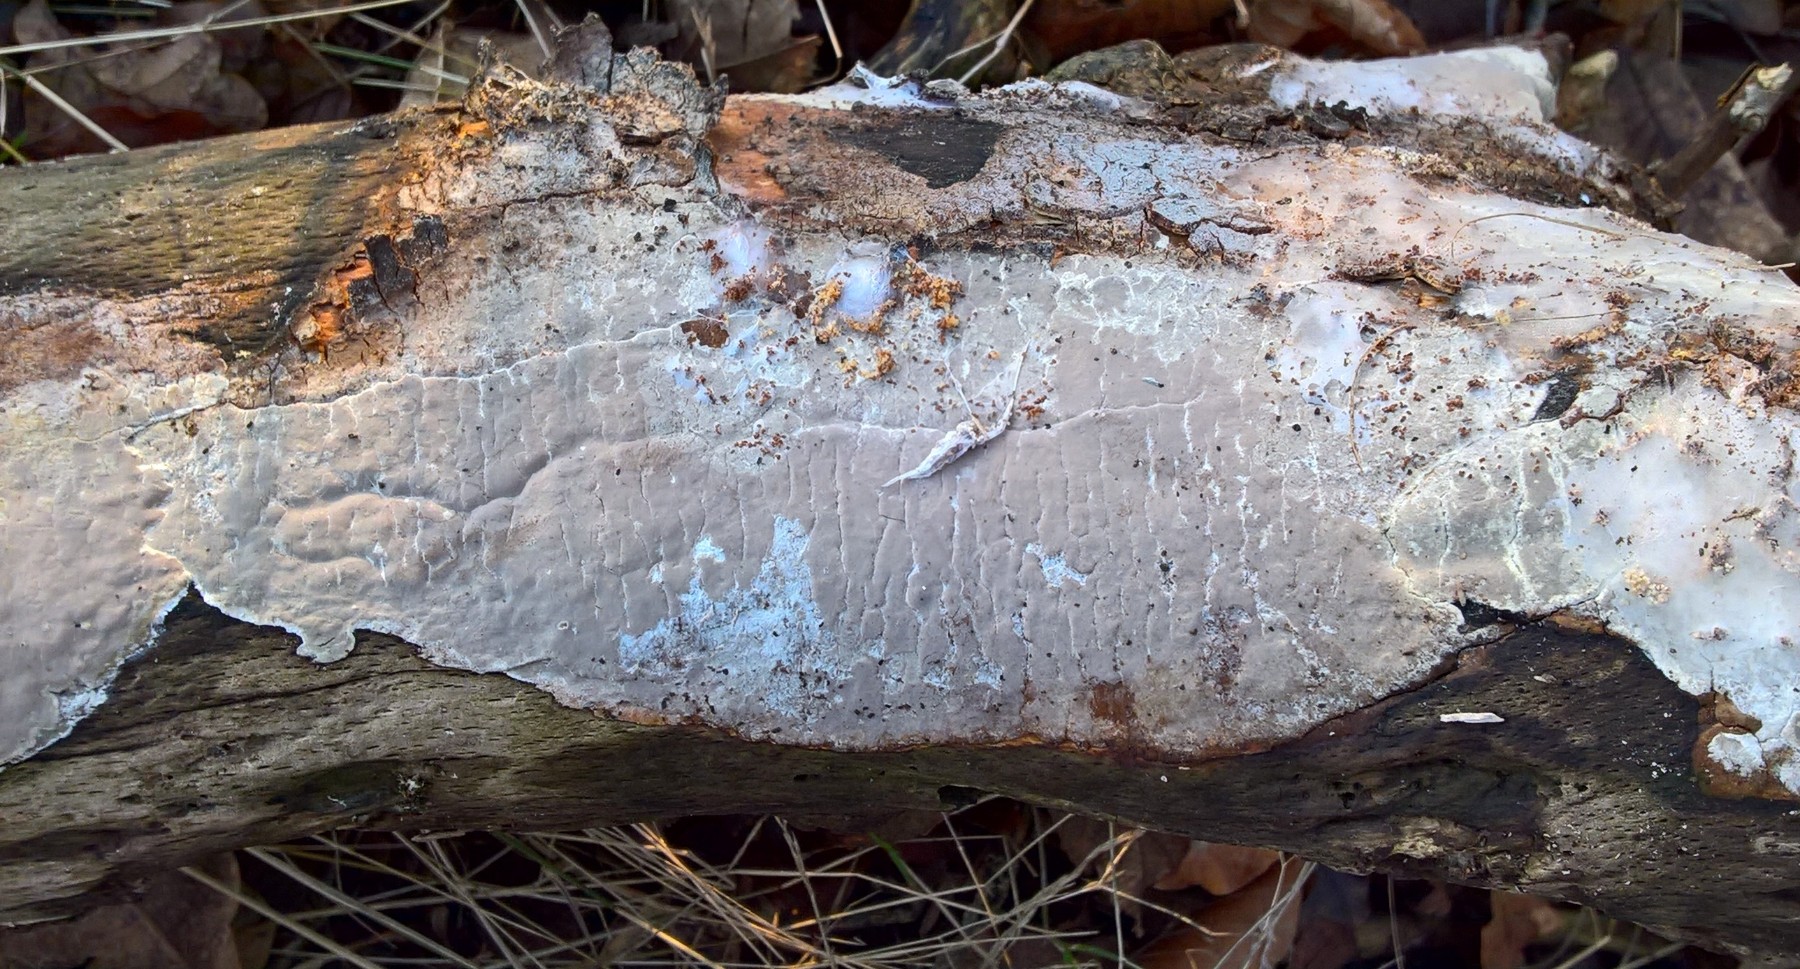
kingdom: Fungi
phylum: Basidiomycota
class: Agaricomycetes
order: Russulales
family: Peniophoraceae
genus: Scytinostroma
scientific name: Scytinostroma hemidichophyticum
